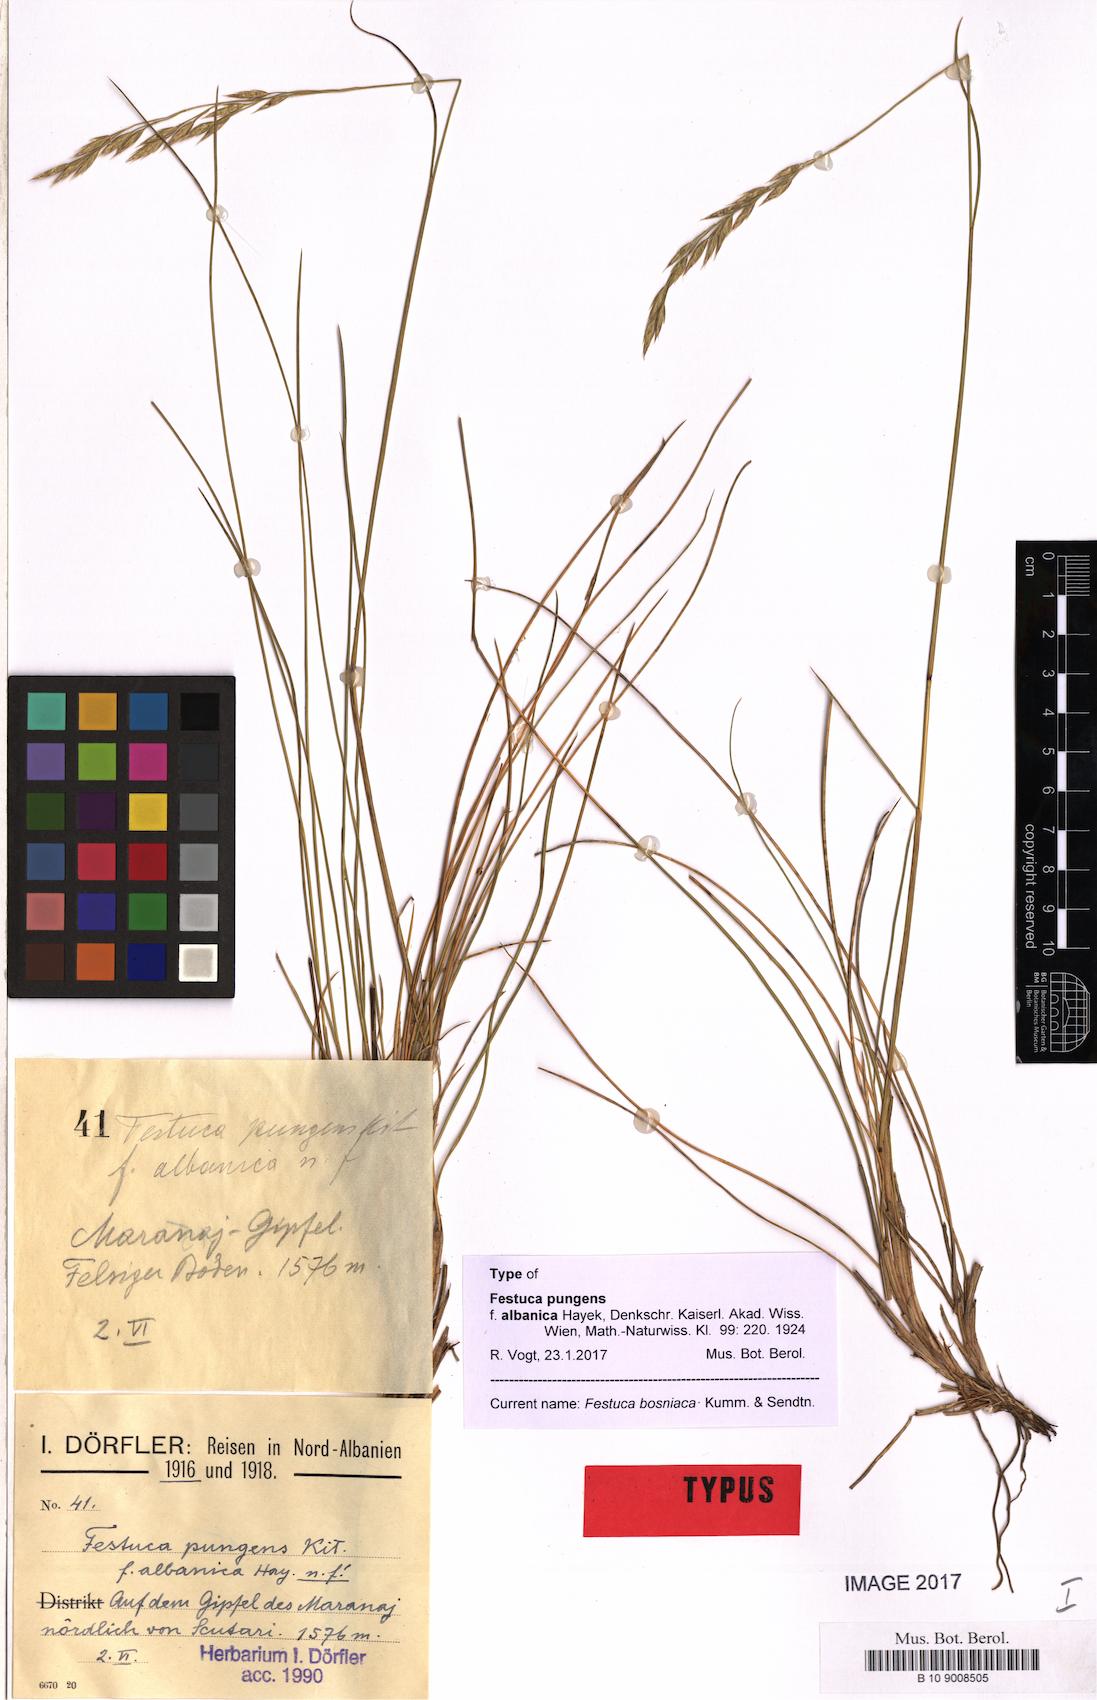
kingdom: Plantae
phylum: Tracheophyta
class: Liliopsida
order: Poales
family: Poaceae
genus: Festuca
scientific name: Festuca bosniaca
